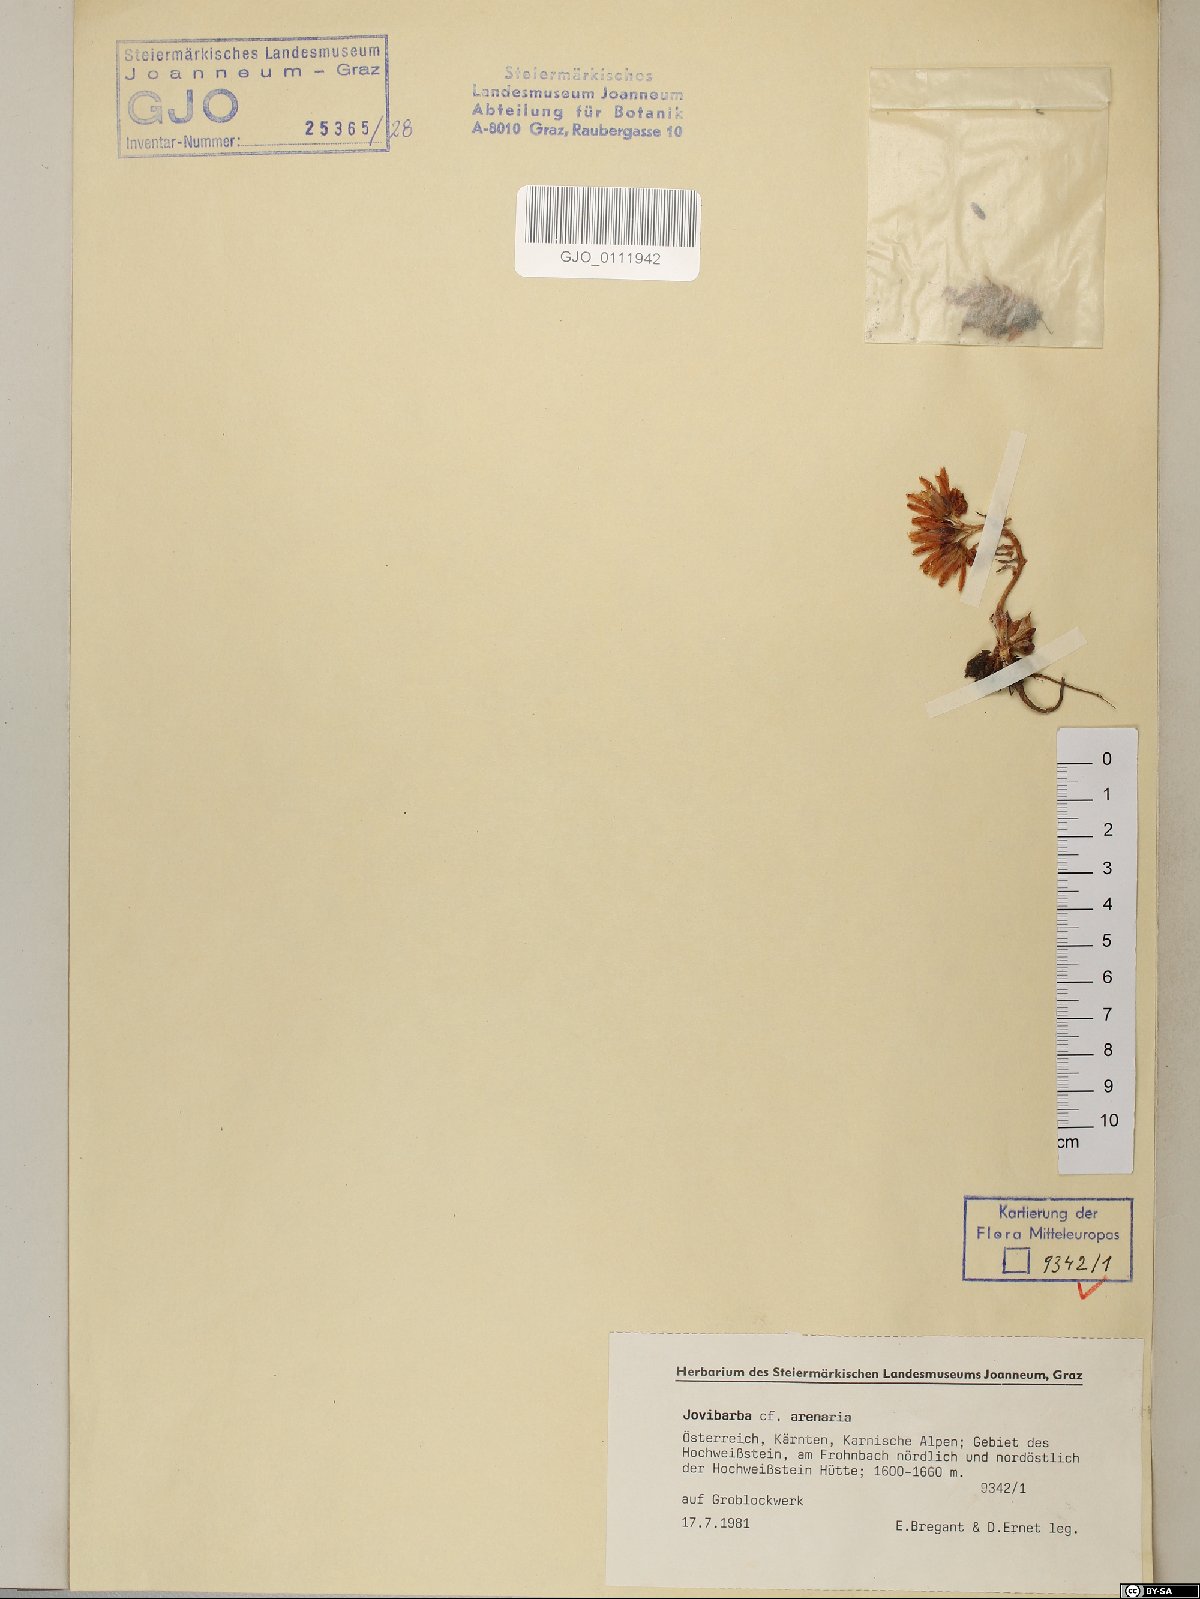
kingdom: Plantae
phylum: Tracheophyta
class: Magnoliopsida
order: Saxifragales
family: Crassulaceae
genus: Sempervivum
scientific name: Sempervivum globiferum
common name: Rolling hen-and-chicks
